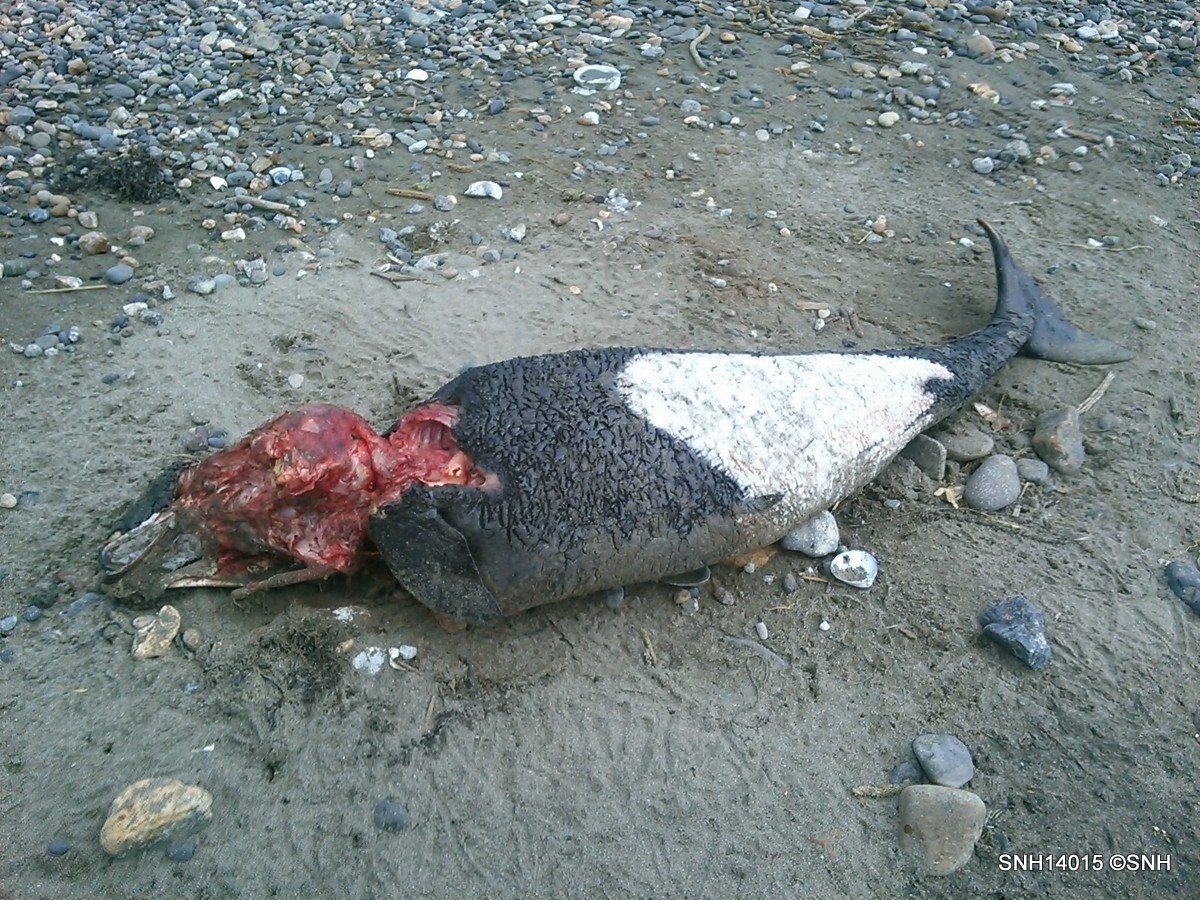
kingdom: Animalia
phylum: Chordata
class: Mammalia
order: Cetacea
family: Phocoenidae
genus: Phocoenoides
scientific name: Phocoenoides dalli
